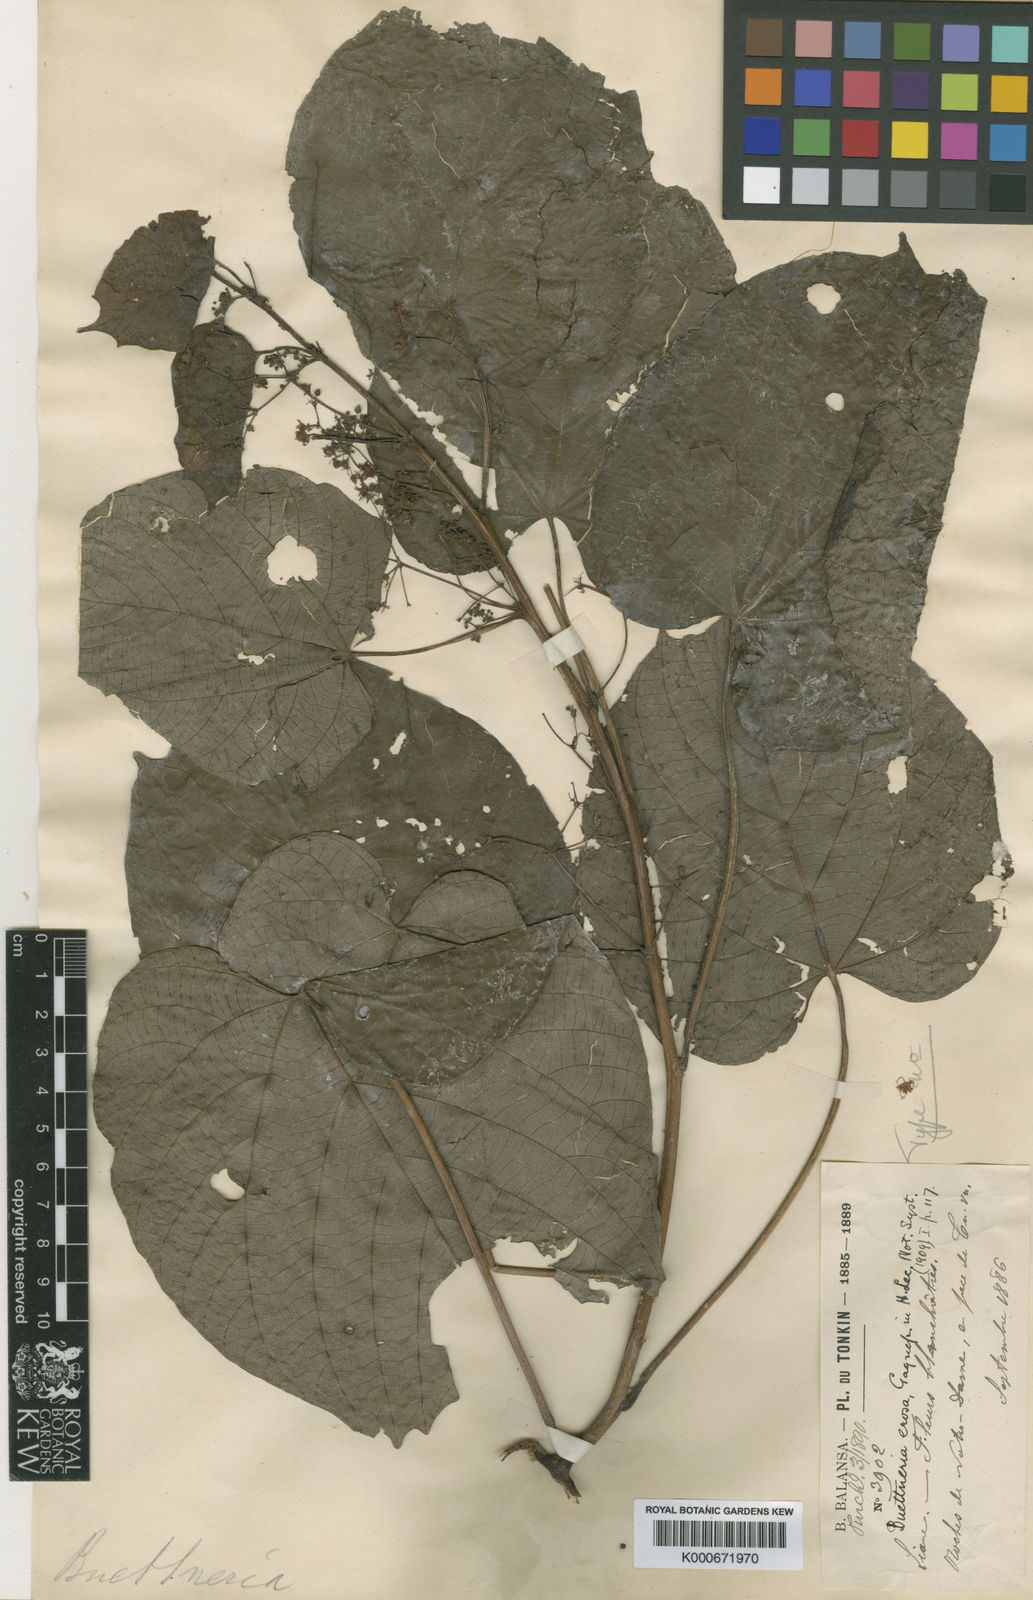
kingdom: Plantae
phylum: Tracheophyta
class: Magnoliopsida
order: Malvales
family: Malvaceae
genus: Byttneria
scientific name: Byttneria erosa
